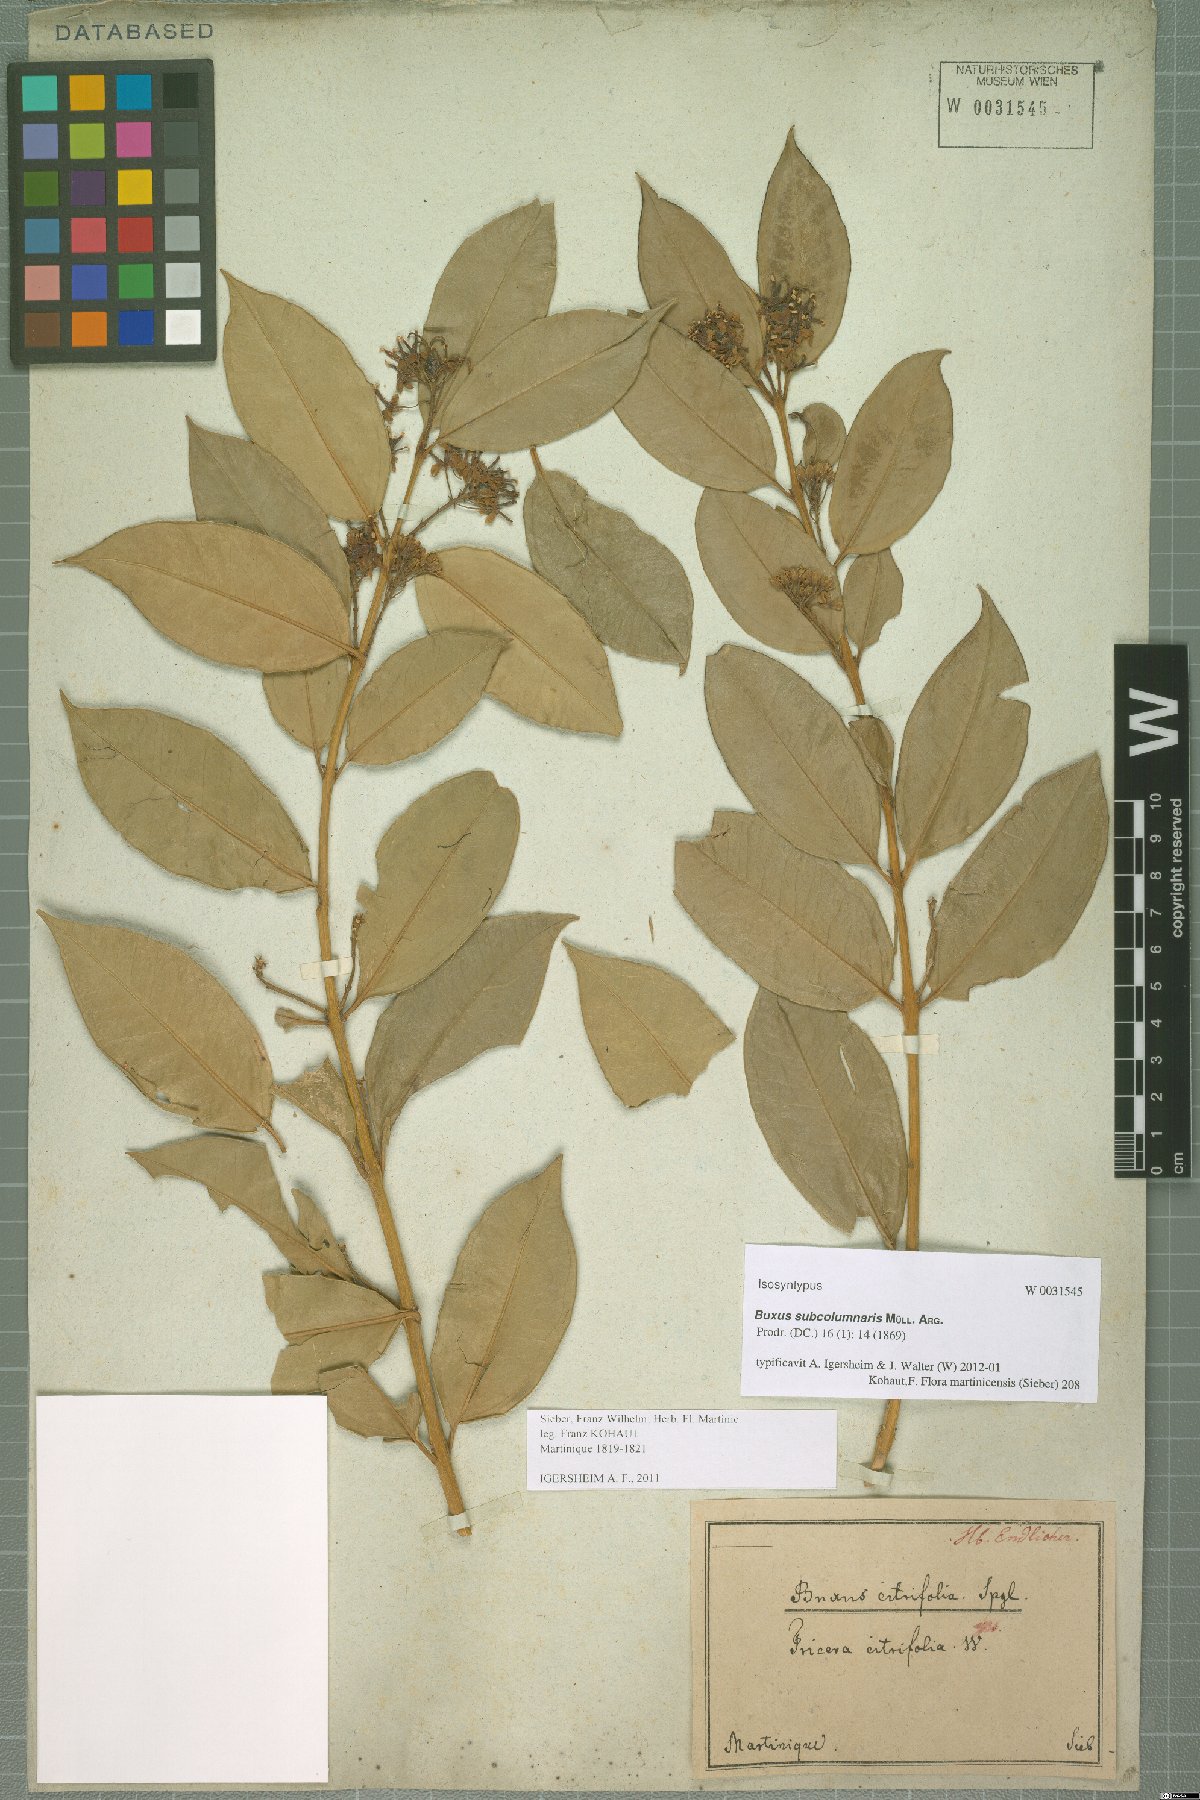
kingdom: Plantae
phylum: Tracheophyta
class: Magnoliopsida
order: Buxales
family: Buxaceae
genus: Buxus
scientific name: Buxus subcolumnaris
